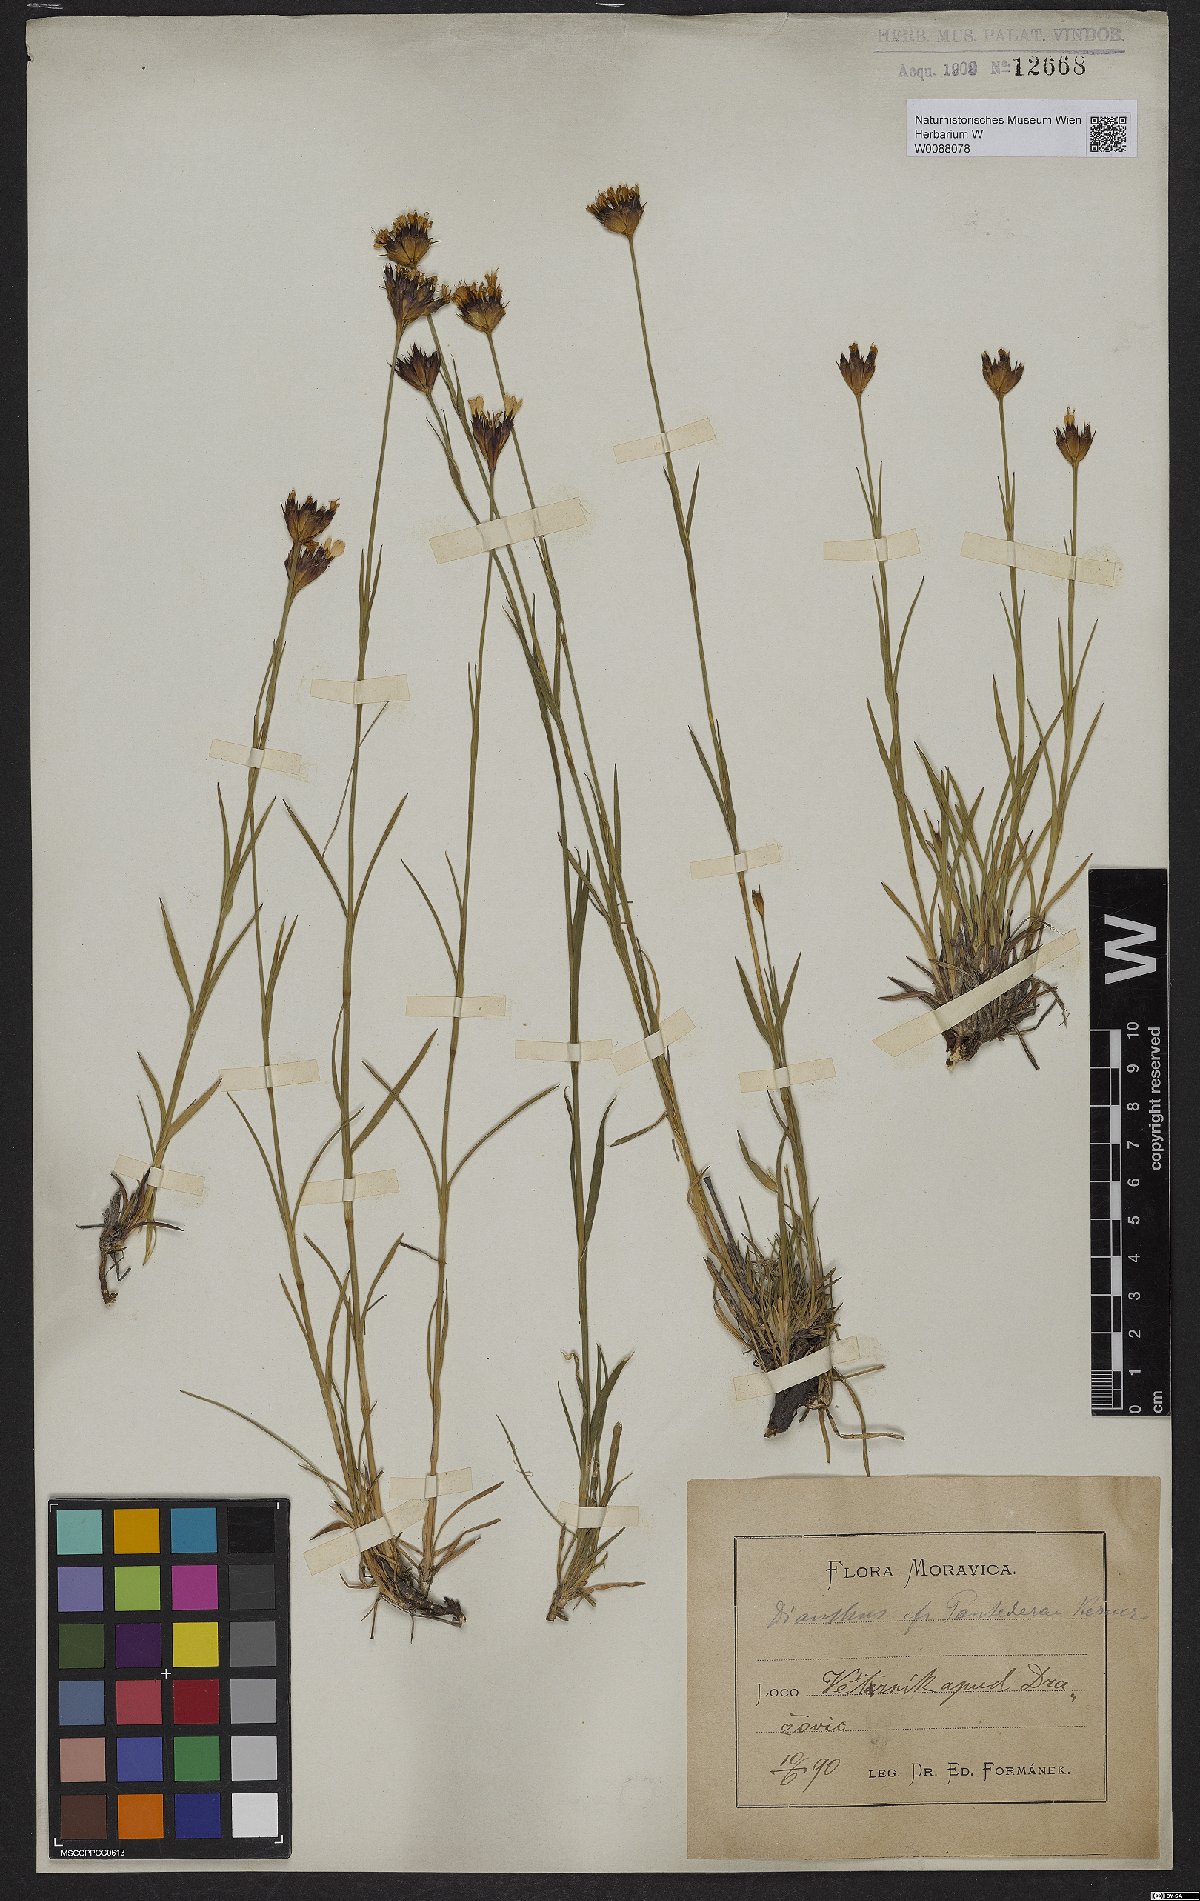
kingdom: Plantae
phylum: Tracheophyta
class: Magnoliopsida
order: Caryophyllales
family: Caryophyllaceae
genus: Dianthus
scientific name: Dianthus pontederae
